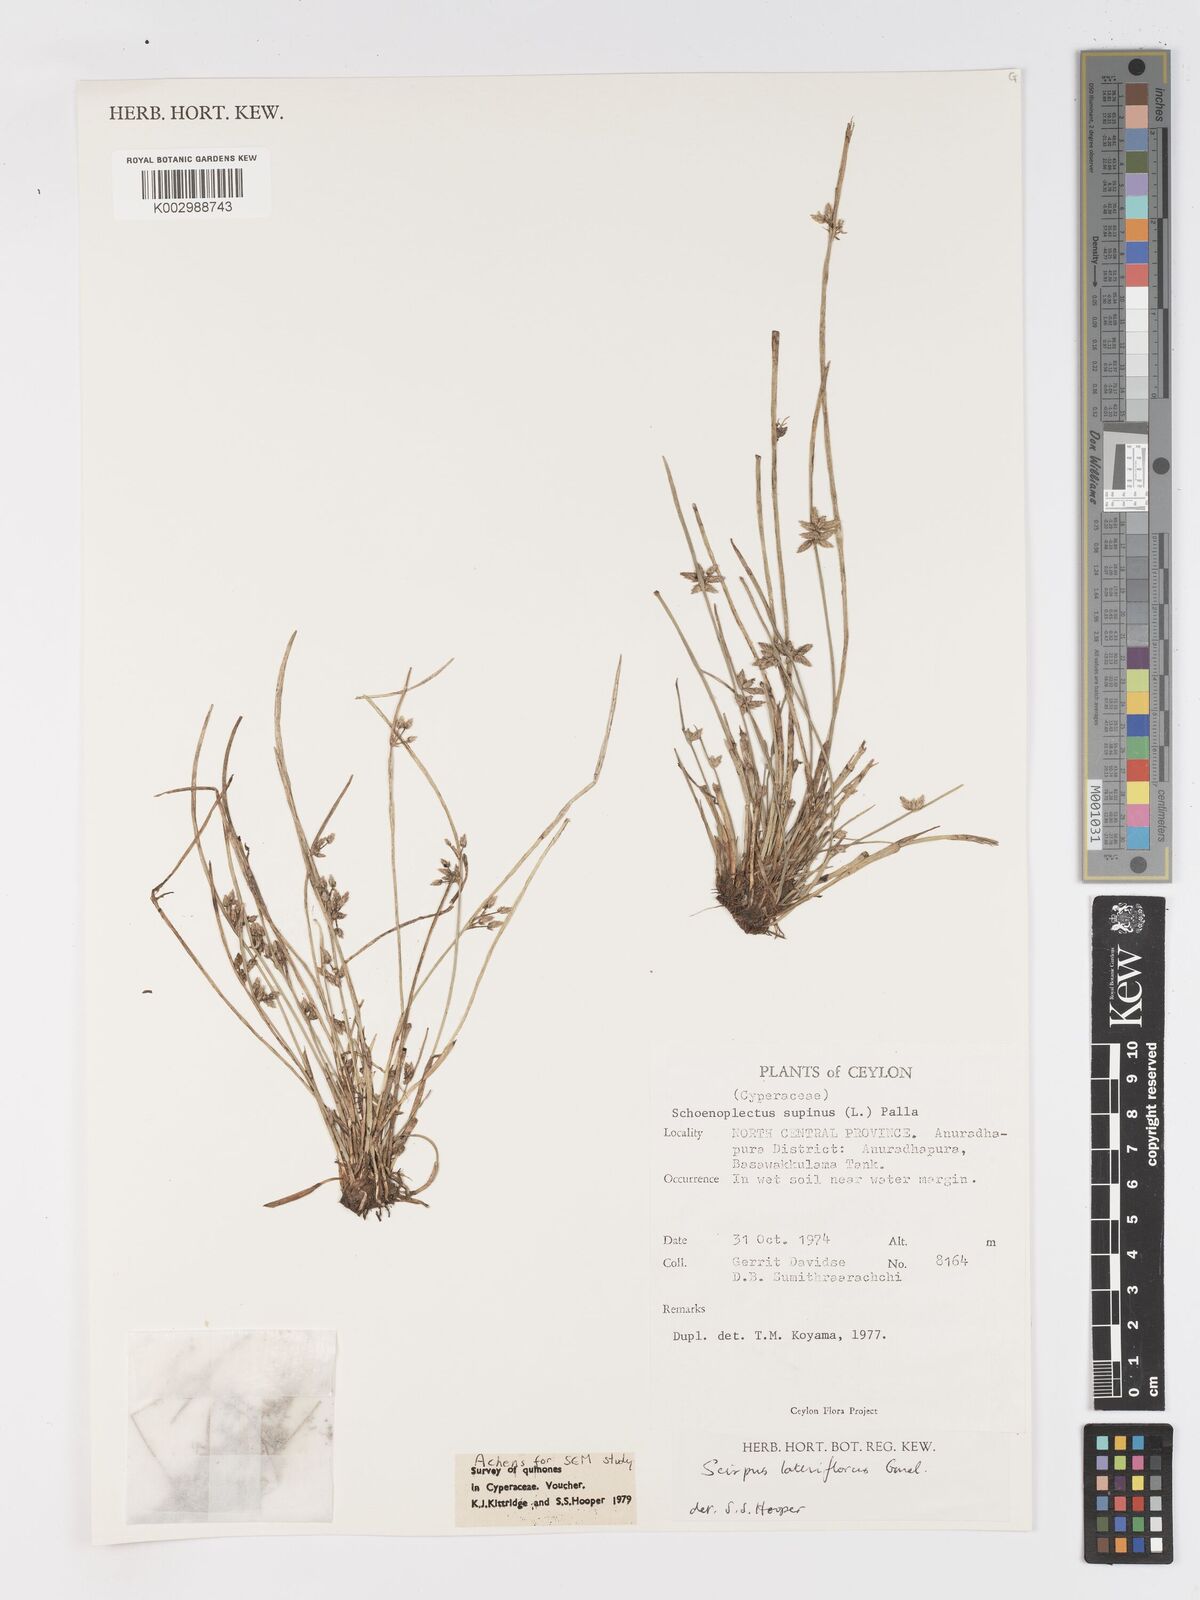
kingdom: Plantae
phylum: Tracheophyta
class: Liliopsida
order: Poales
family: Cyperaceae
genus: Schoenoplectiella
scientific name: Schoenoplectiella lateriflora
